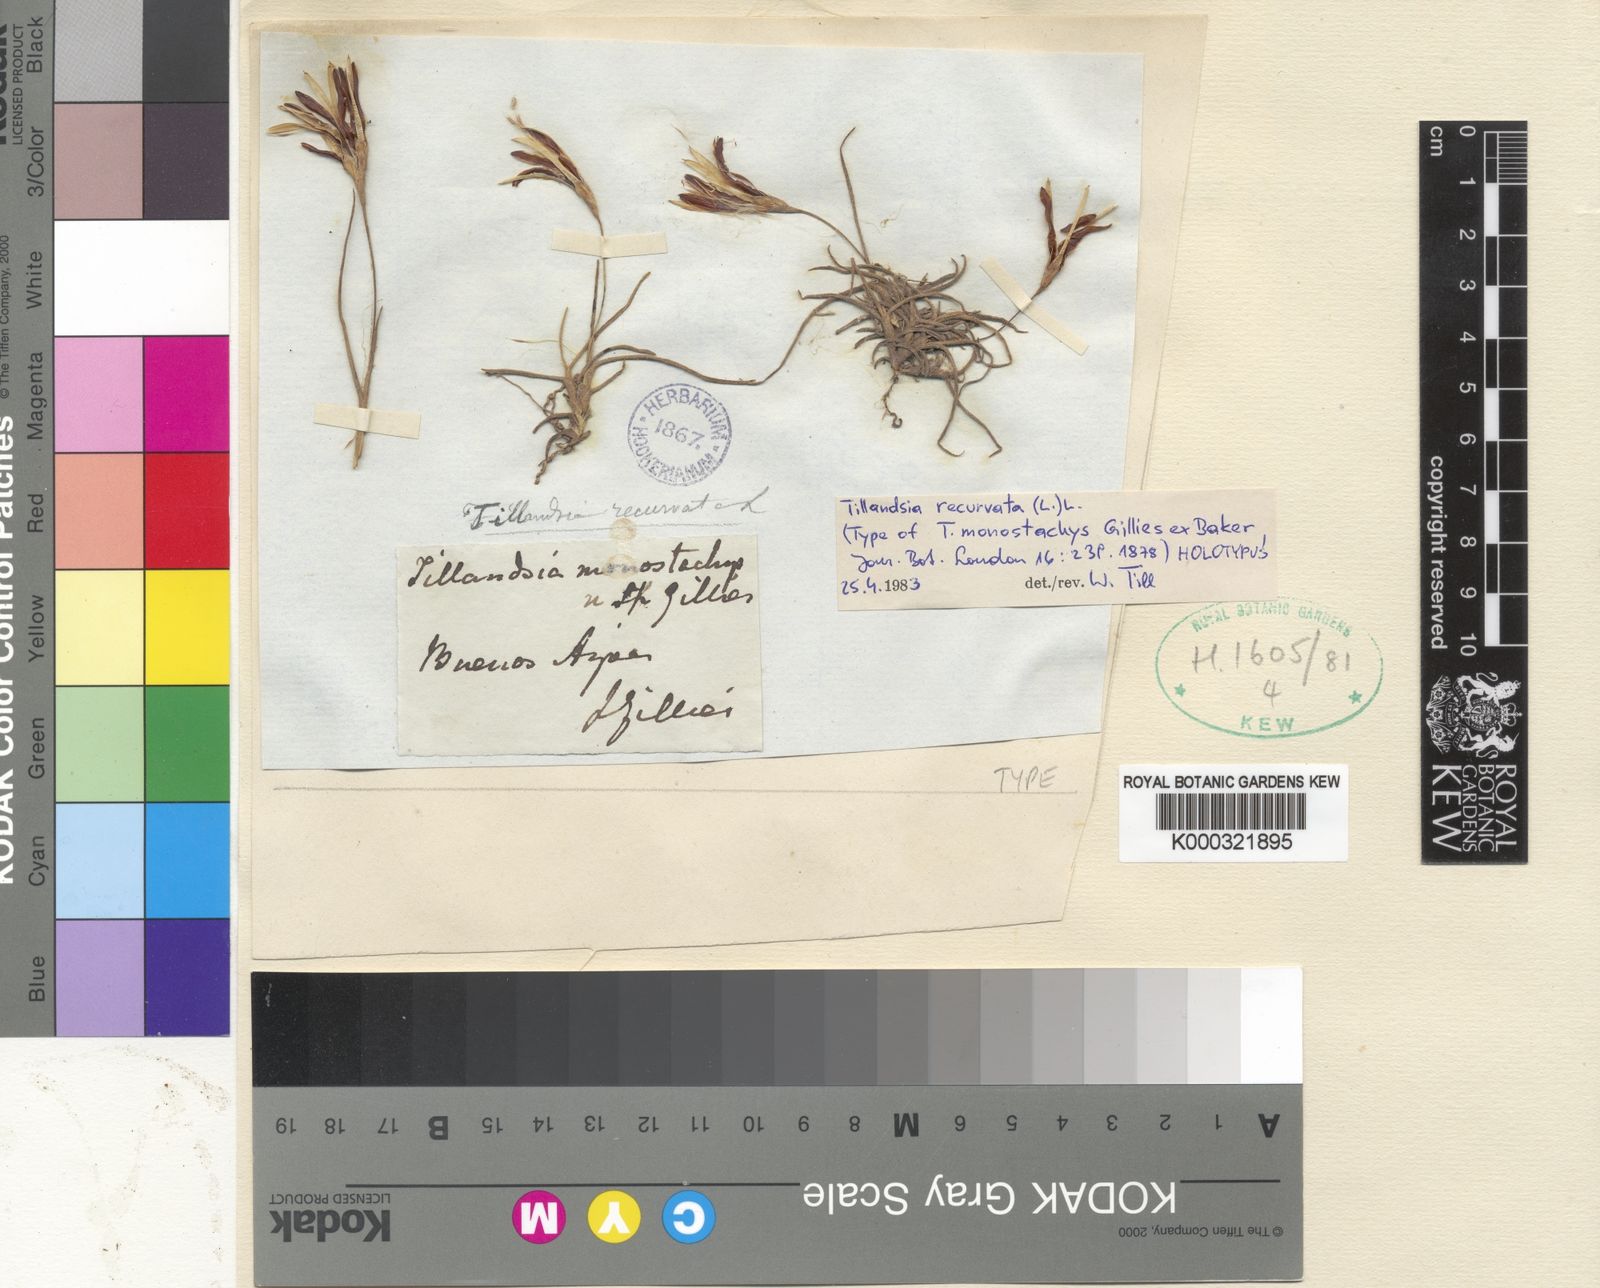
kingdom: Plantae
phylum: Tracheophyta
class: Liliopsida
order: Poales
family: Bromeliaceae
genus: Tillandsia
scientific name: Tillandsia recurvata
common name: Small ballmoss
